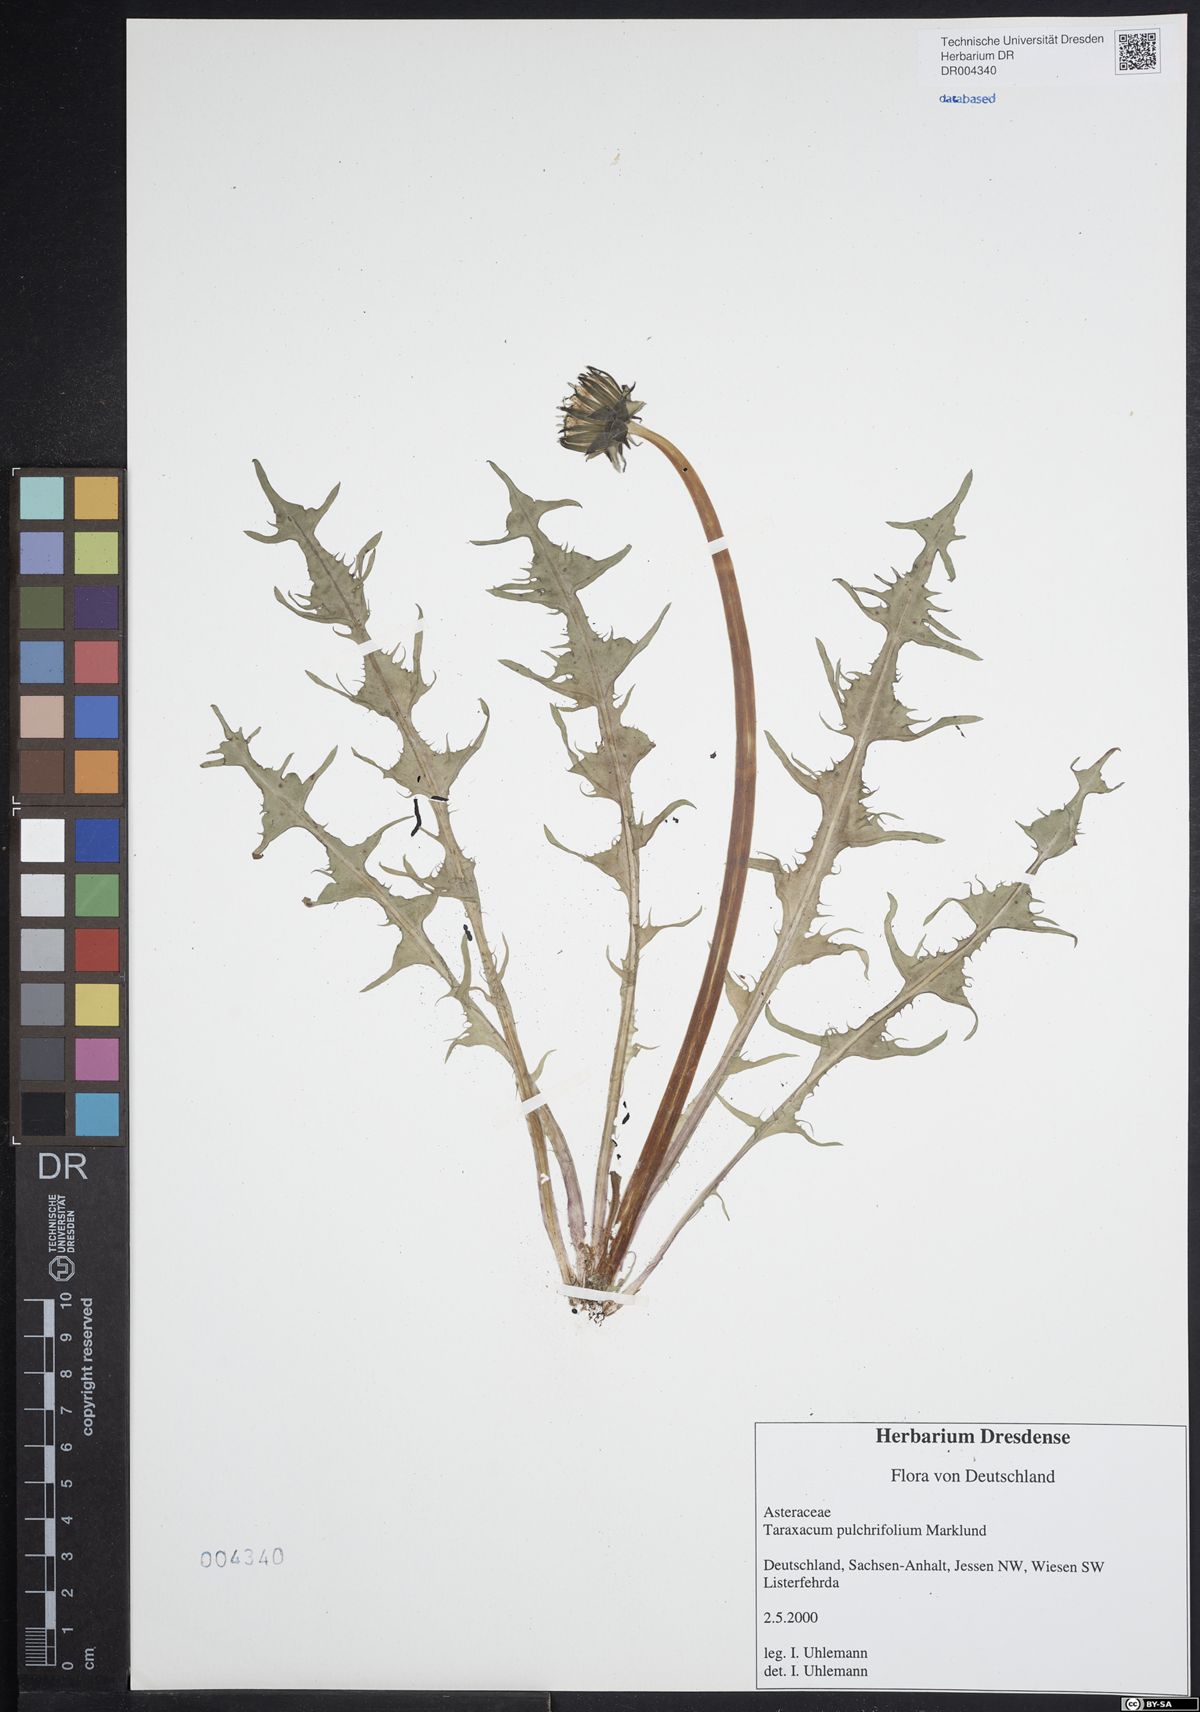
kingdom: Plantae
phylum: Tracheophyta
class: Magnoliopsida
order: Asterales
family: Asteraceae
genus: Taraxacum
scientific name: Taraxacum pulchrifolium
